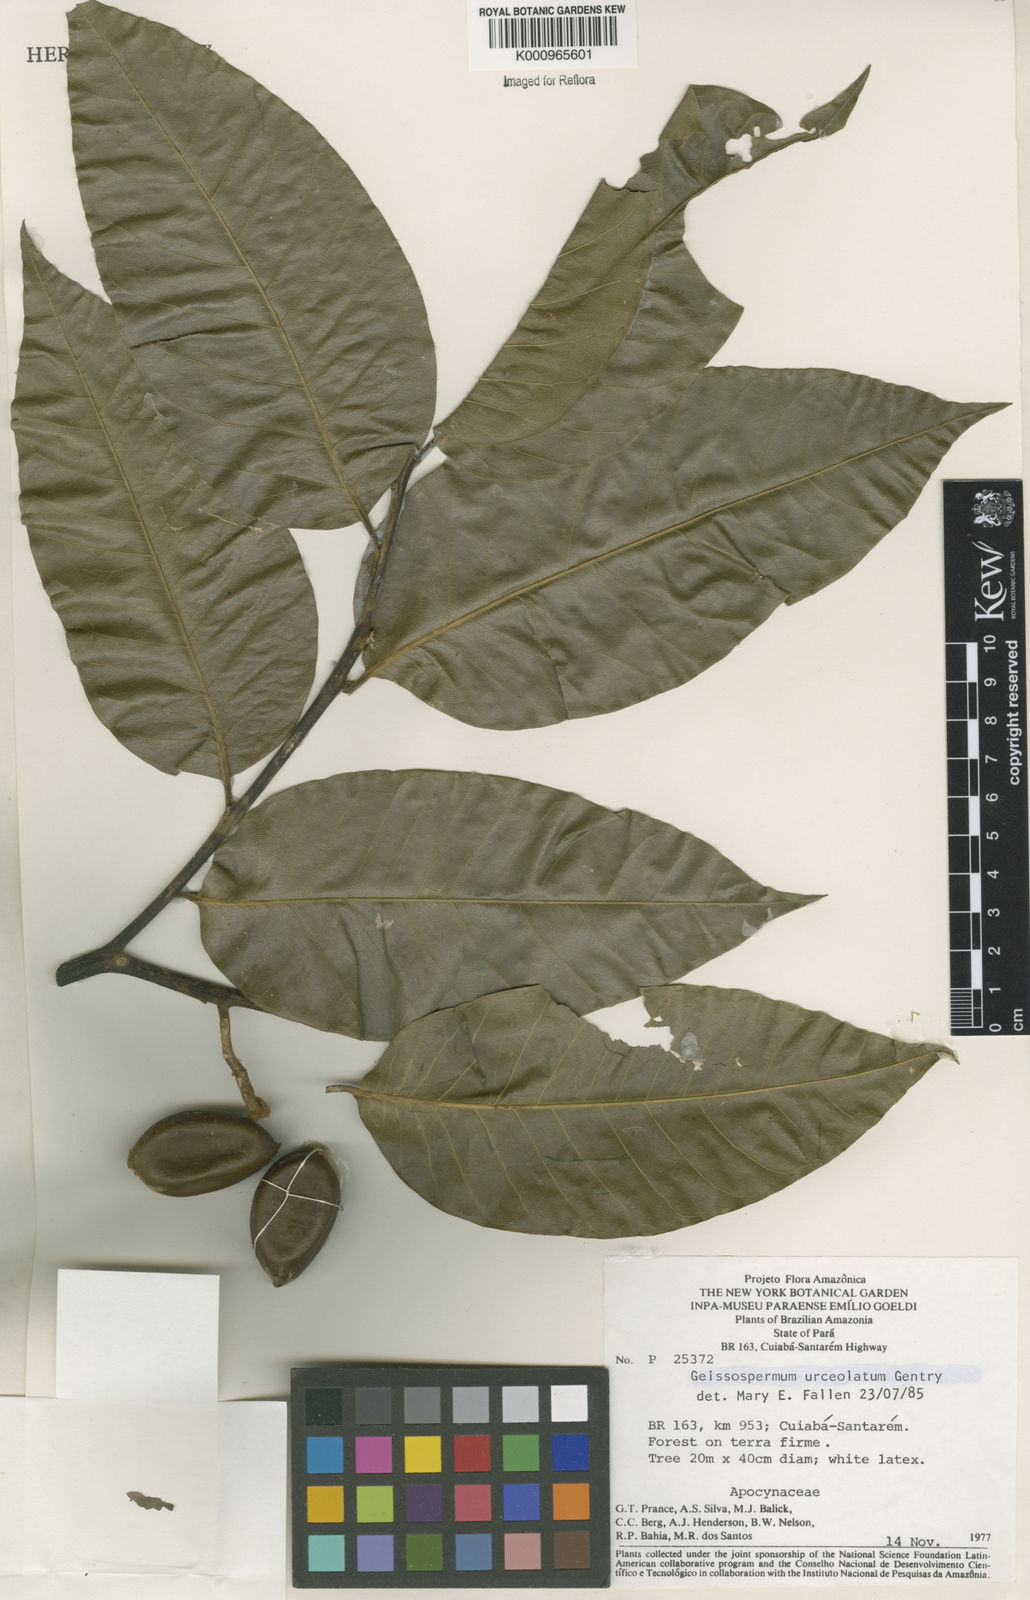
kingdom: Plantae
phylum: Tracheophyta
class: Magnoliopsida
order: Gentianales
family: Apocynaceae
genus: Geissospermum
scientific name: Geissospermum urceolatum
